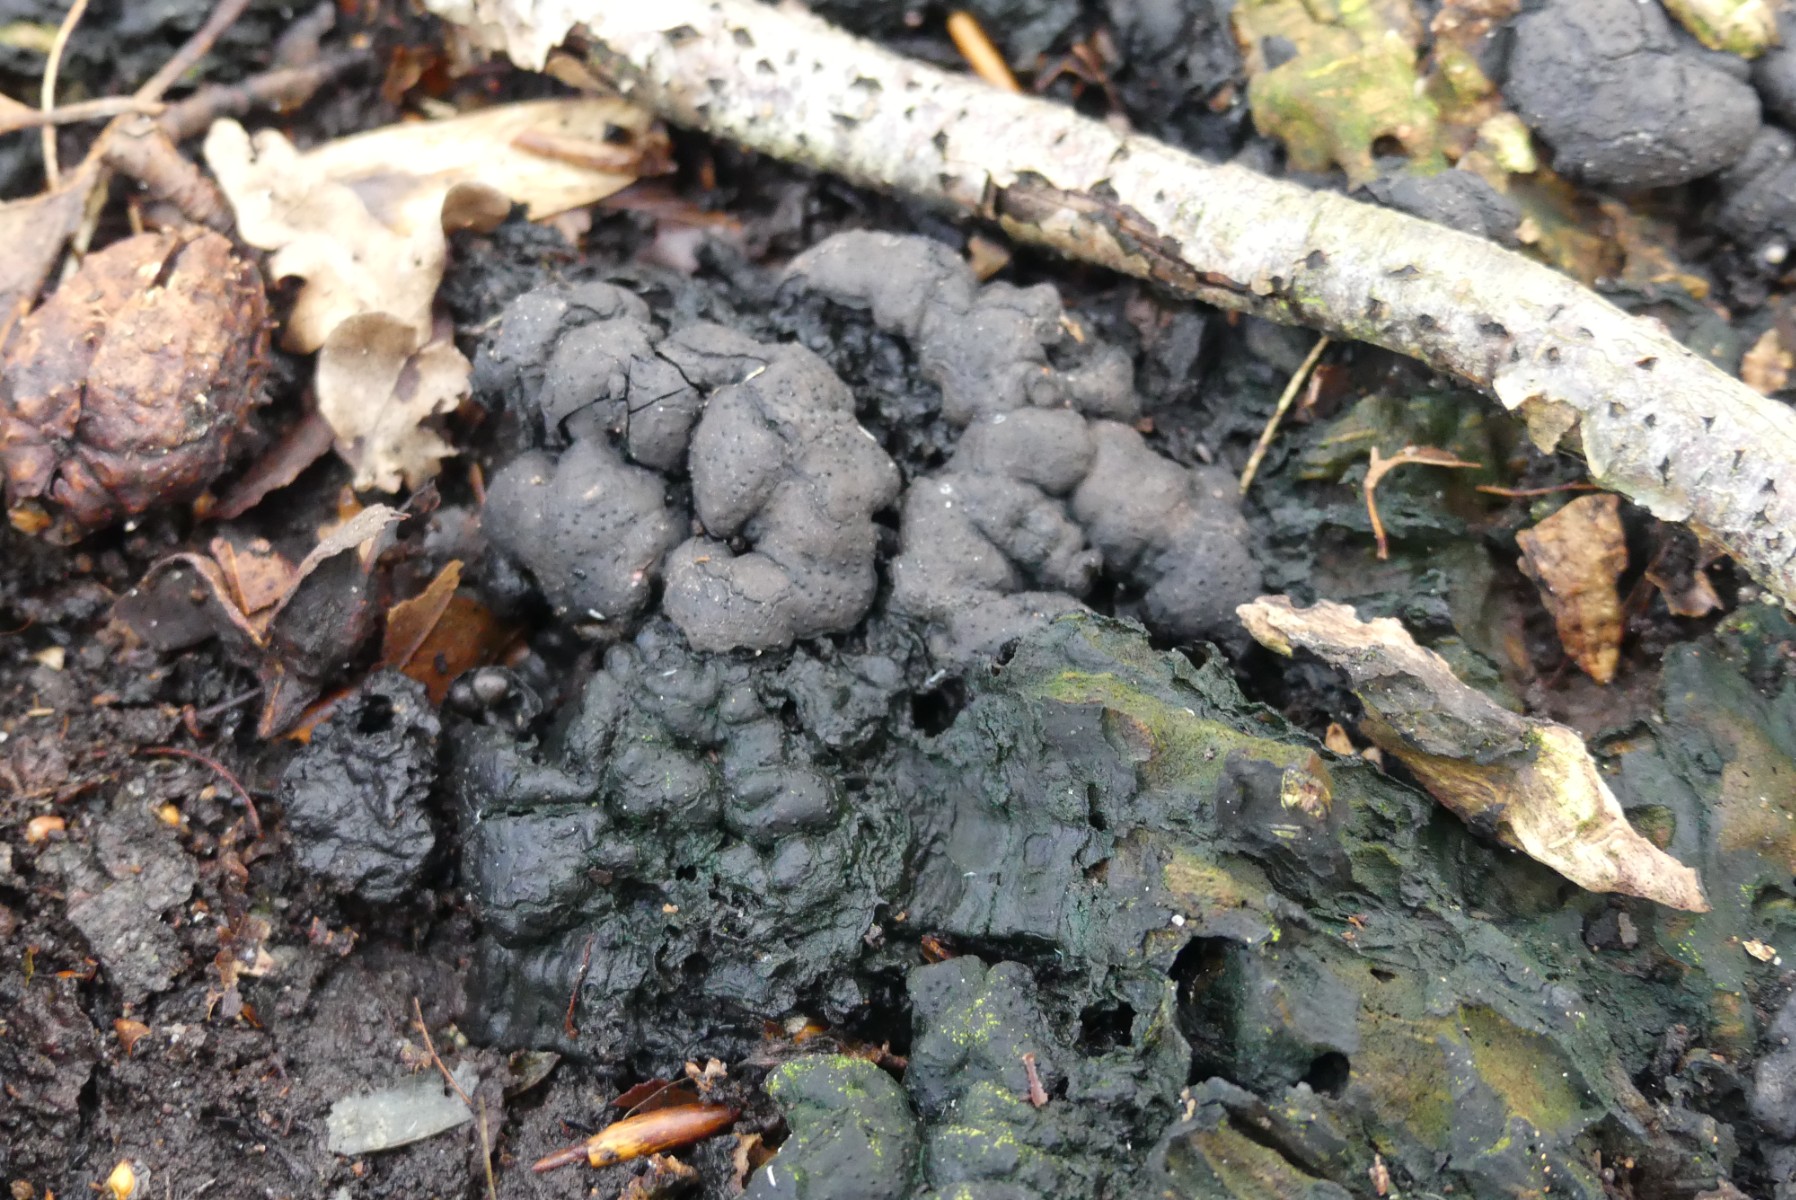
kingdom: Fungi
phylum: Ascomycota
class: Sordariomycetes
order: Xylariales
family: Xylariaceae
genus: Kretzschmaria
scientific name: Kretzschmaria deusta
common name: stor kulsvamp
